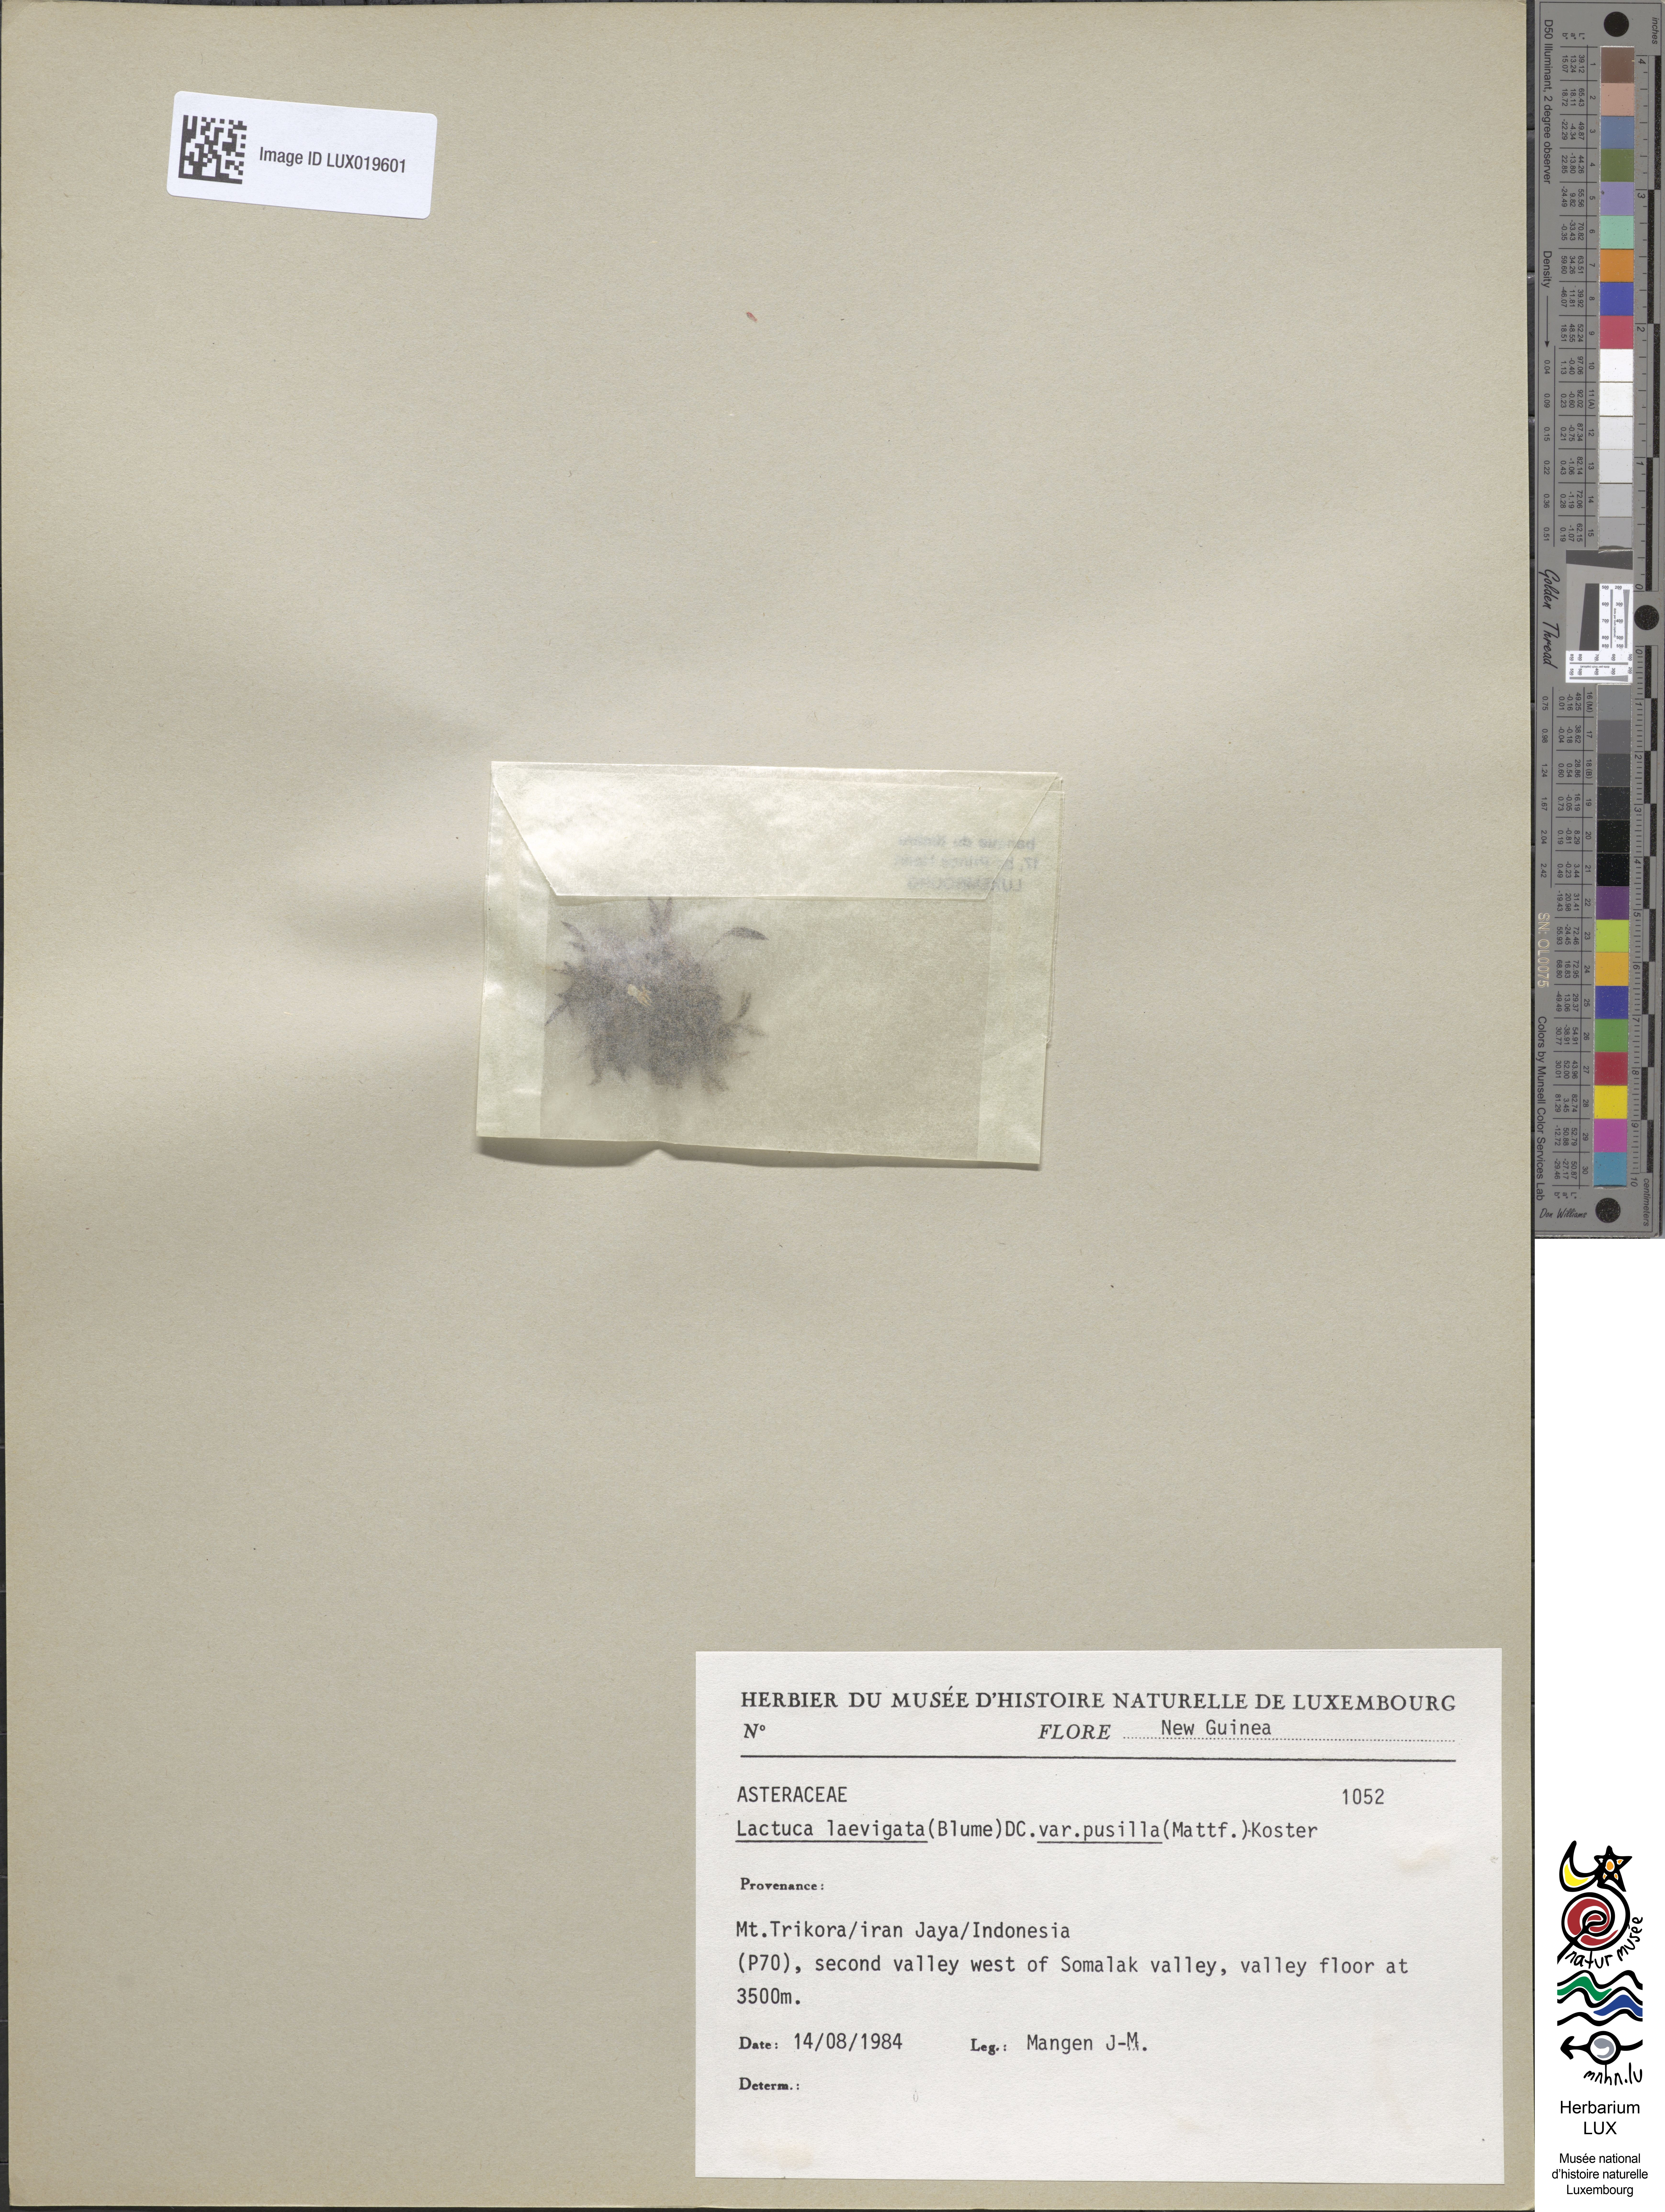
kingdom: Plantae
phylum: Tracheophyta
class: Magnoliopsida
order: Asterales
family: Asteraceae
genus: Ixeridium
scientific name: Ixeridium pusillum
